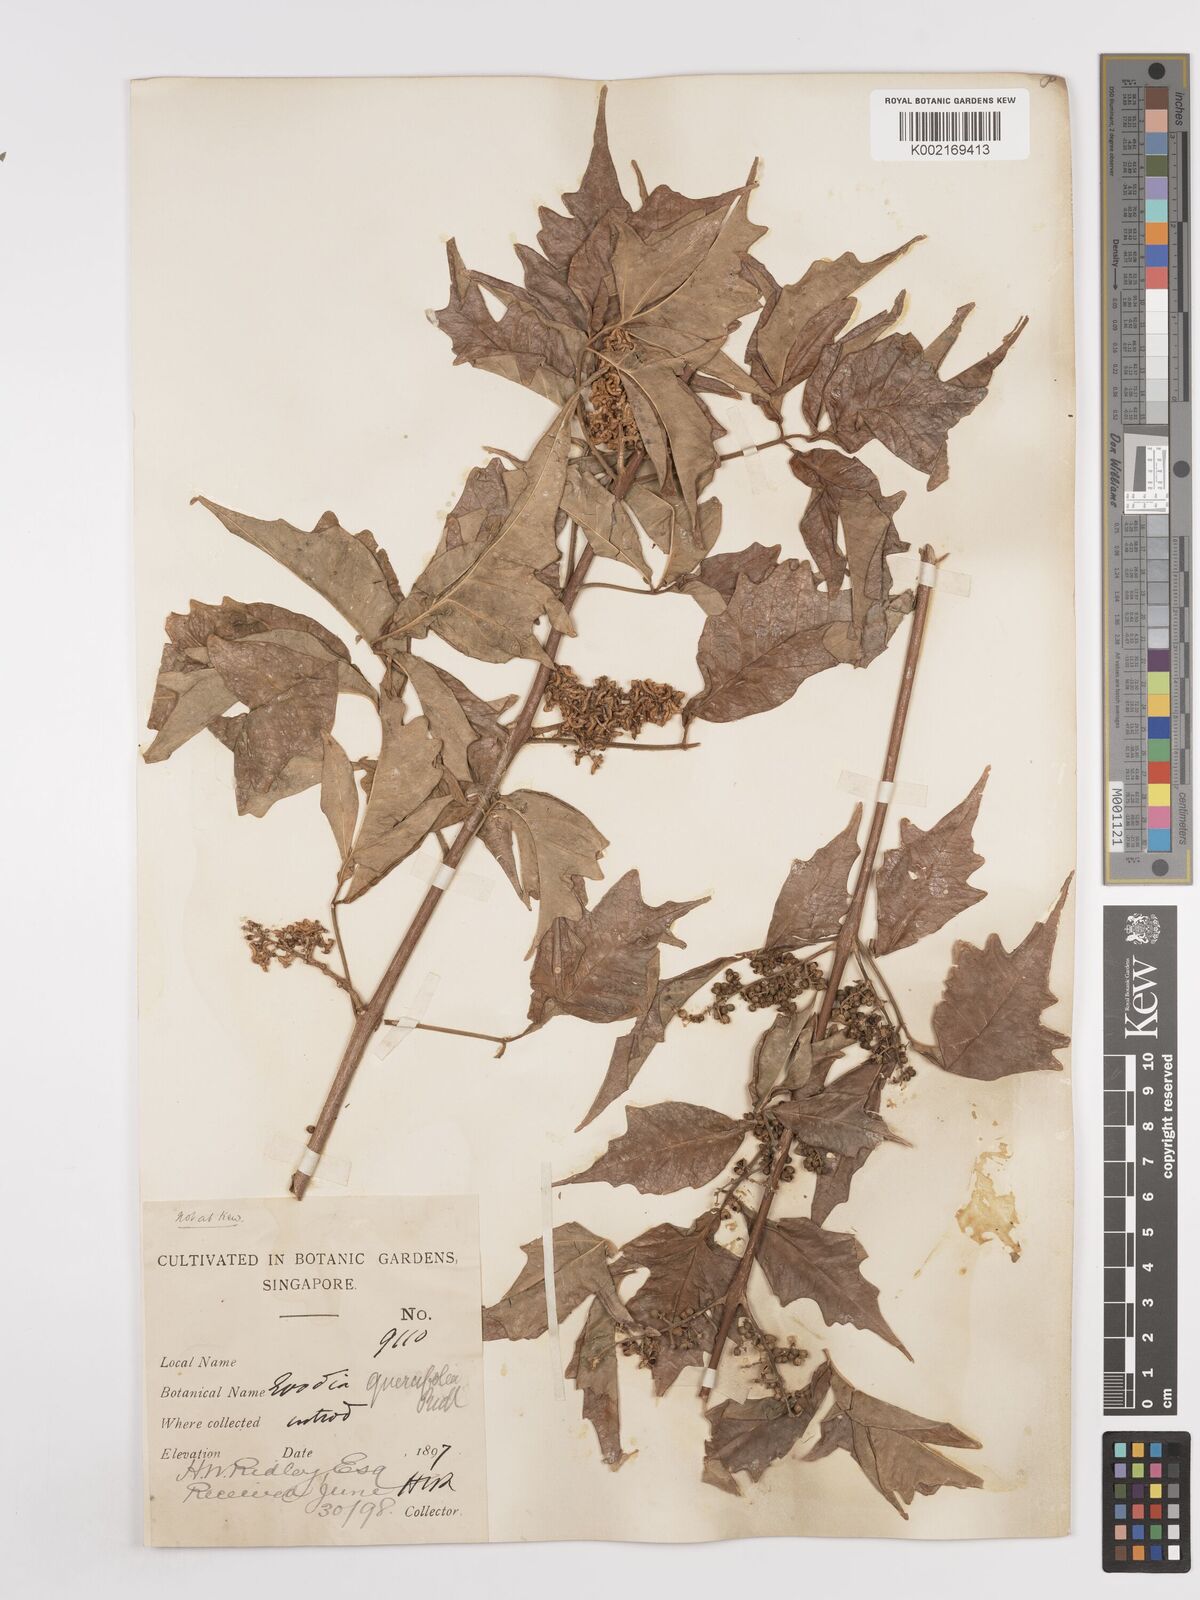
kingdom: Plantae
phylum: Tracheophyta
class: Magnoliopsida
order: Sapindales
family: Rutaceae
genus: Melicope
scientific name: Melicope denhamii
